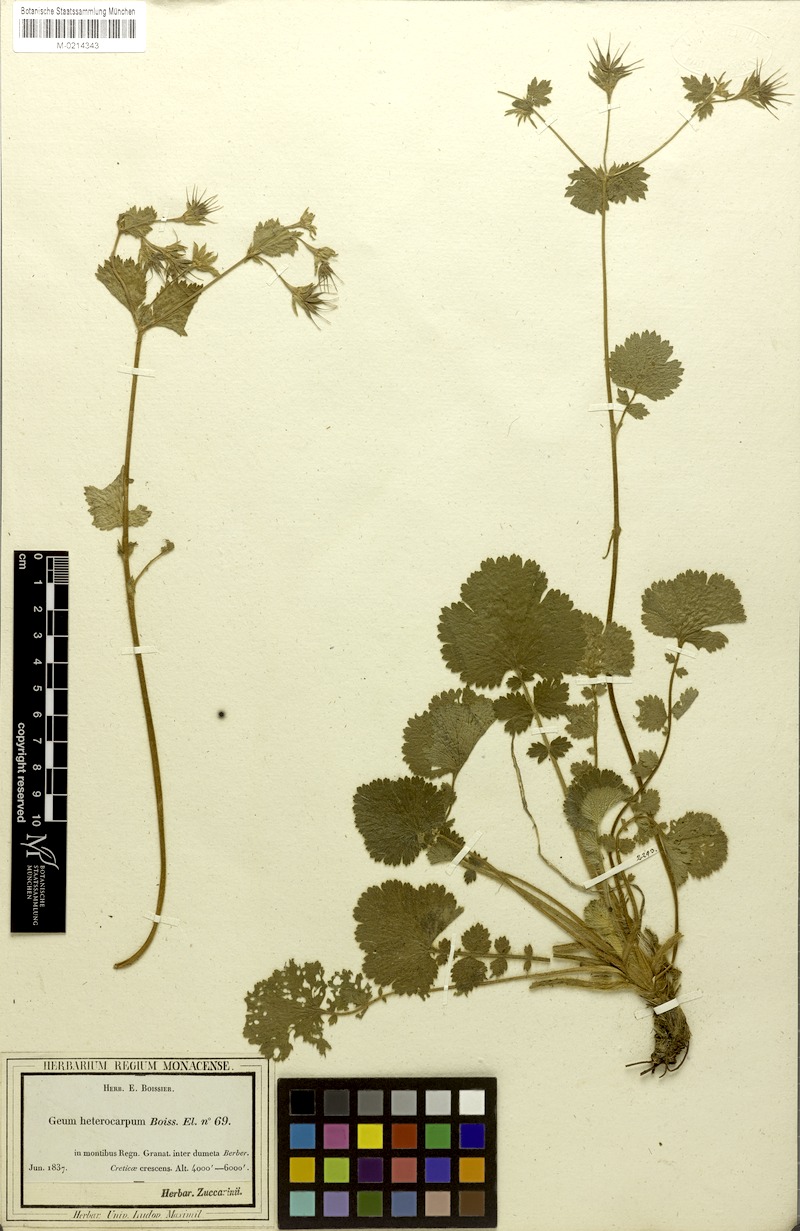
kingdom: Plantae
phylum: Tracheophyta
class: Magnoliopsida
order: Rosales
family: Rosaceae
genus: Geum
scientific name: Geum heterocarpum
